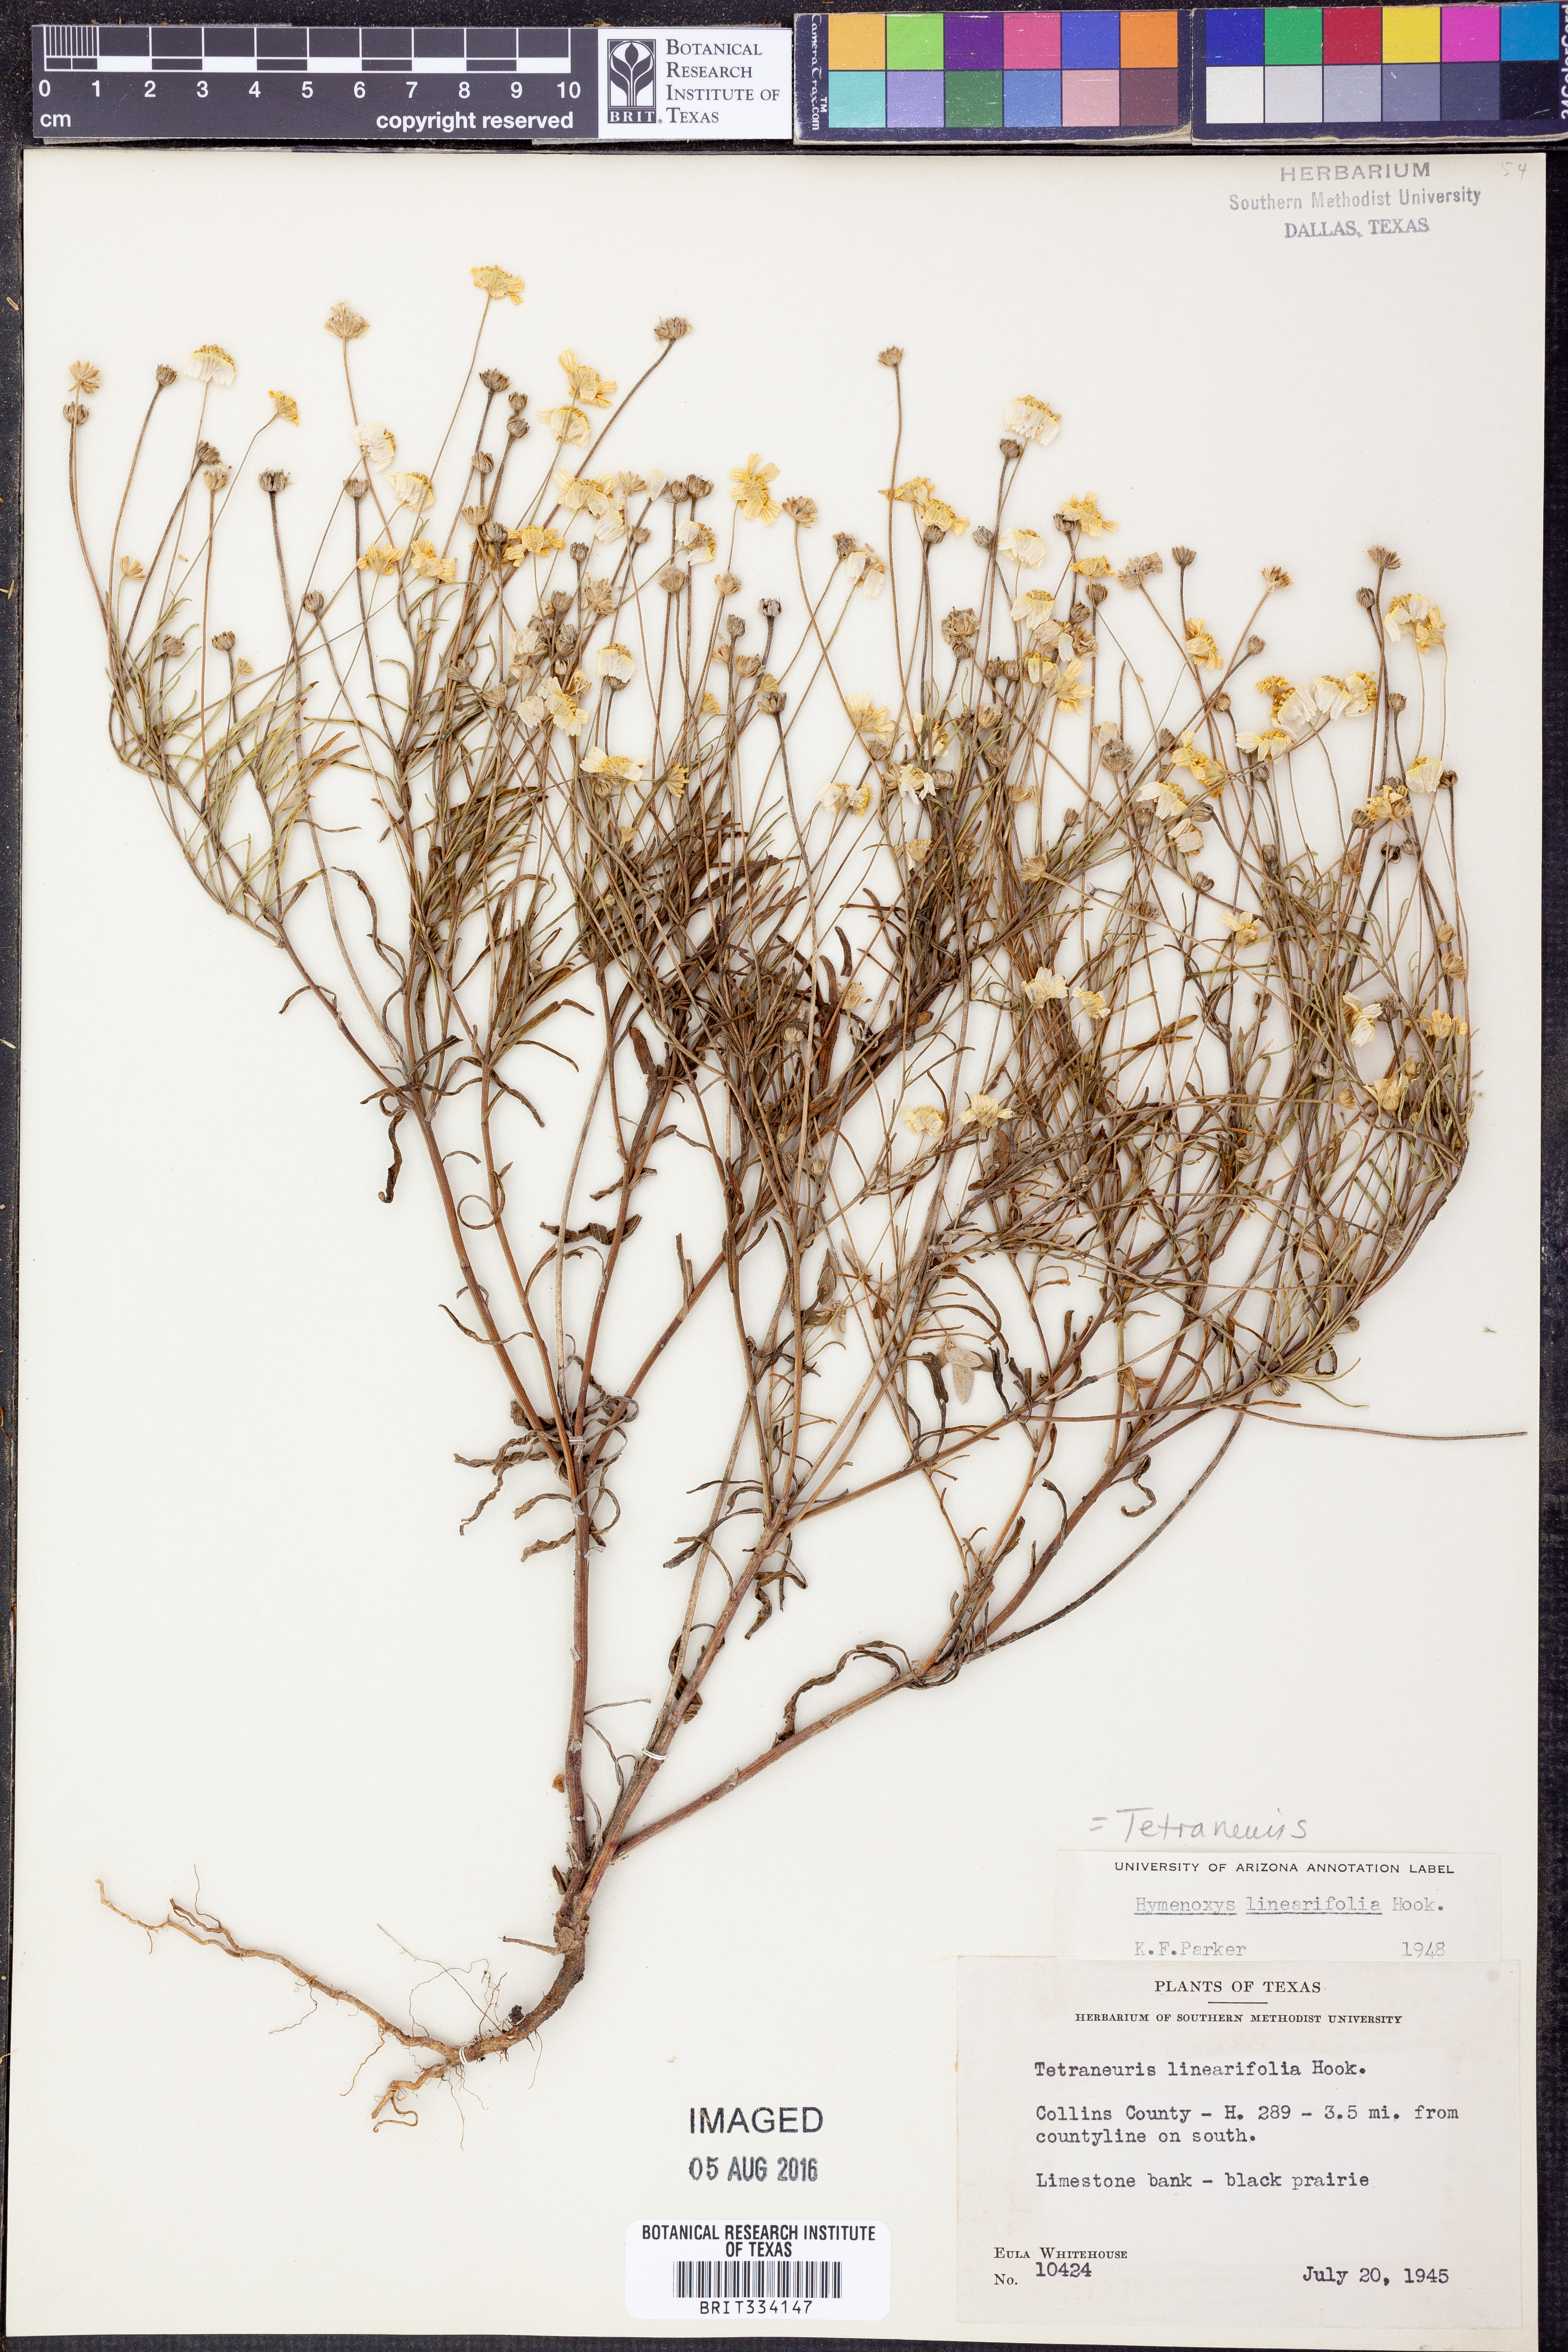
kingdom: Plantae
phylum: Tracheophyta
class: Magnoliopsida
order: Asterales
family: Asteraceae
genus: Tetraneuris
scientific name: Tetraneuris linearifolia
